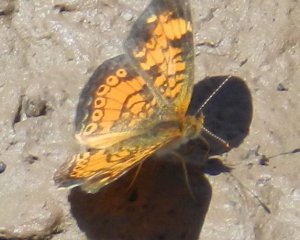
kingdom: Animalia
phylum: Arthropoda
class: Insecta
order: Lepidoptera
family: Nymphalidae
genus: Phyciodes
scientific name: Phyciodes tharos
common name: Pearl Crescent
